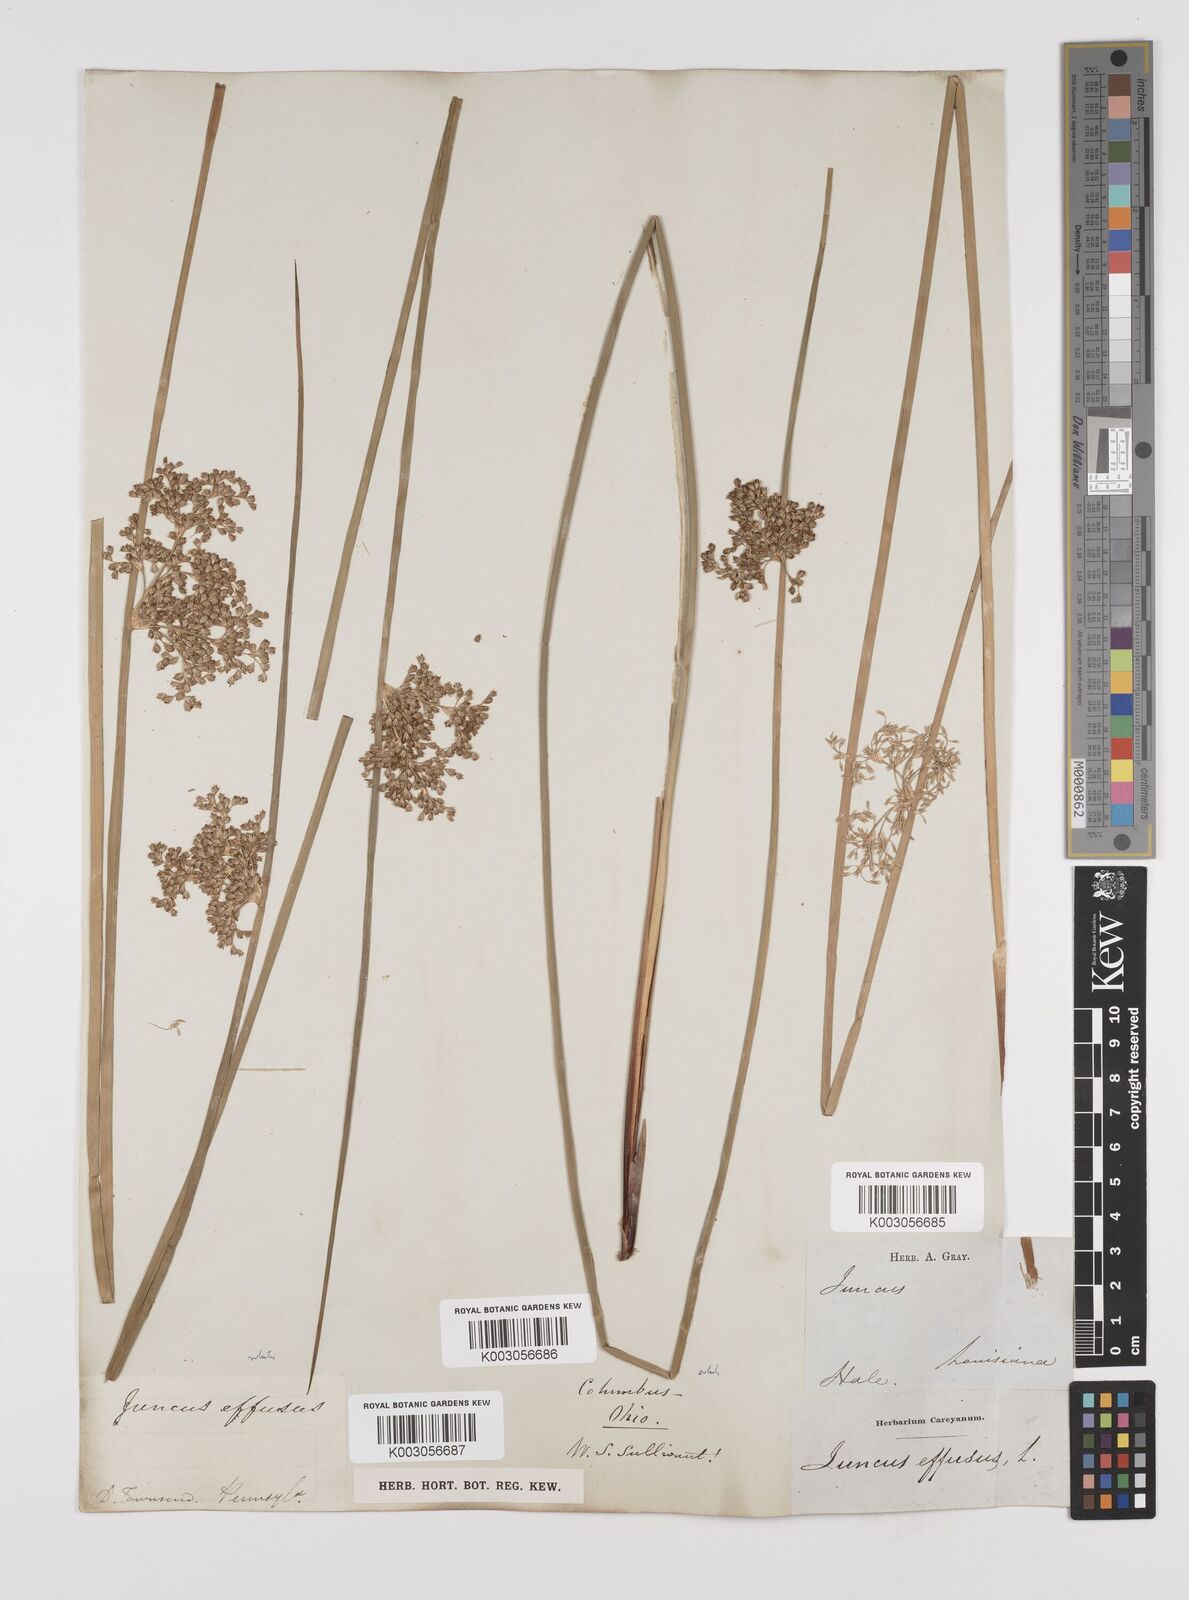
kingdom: Plantae
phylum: Tracheophyta
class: Liliopsida
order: Poales
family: Juncaceae
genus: Juncus
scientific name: Juncus effusus
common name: Soft rush
